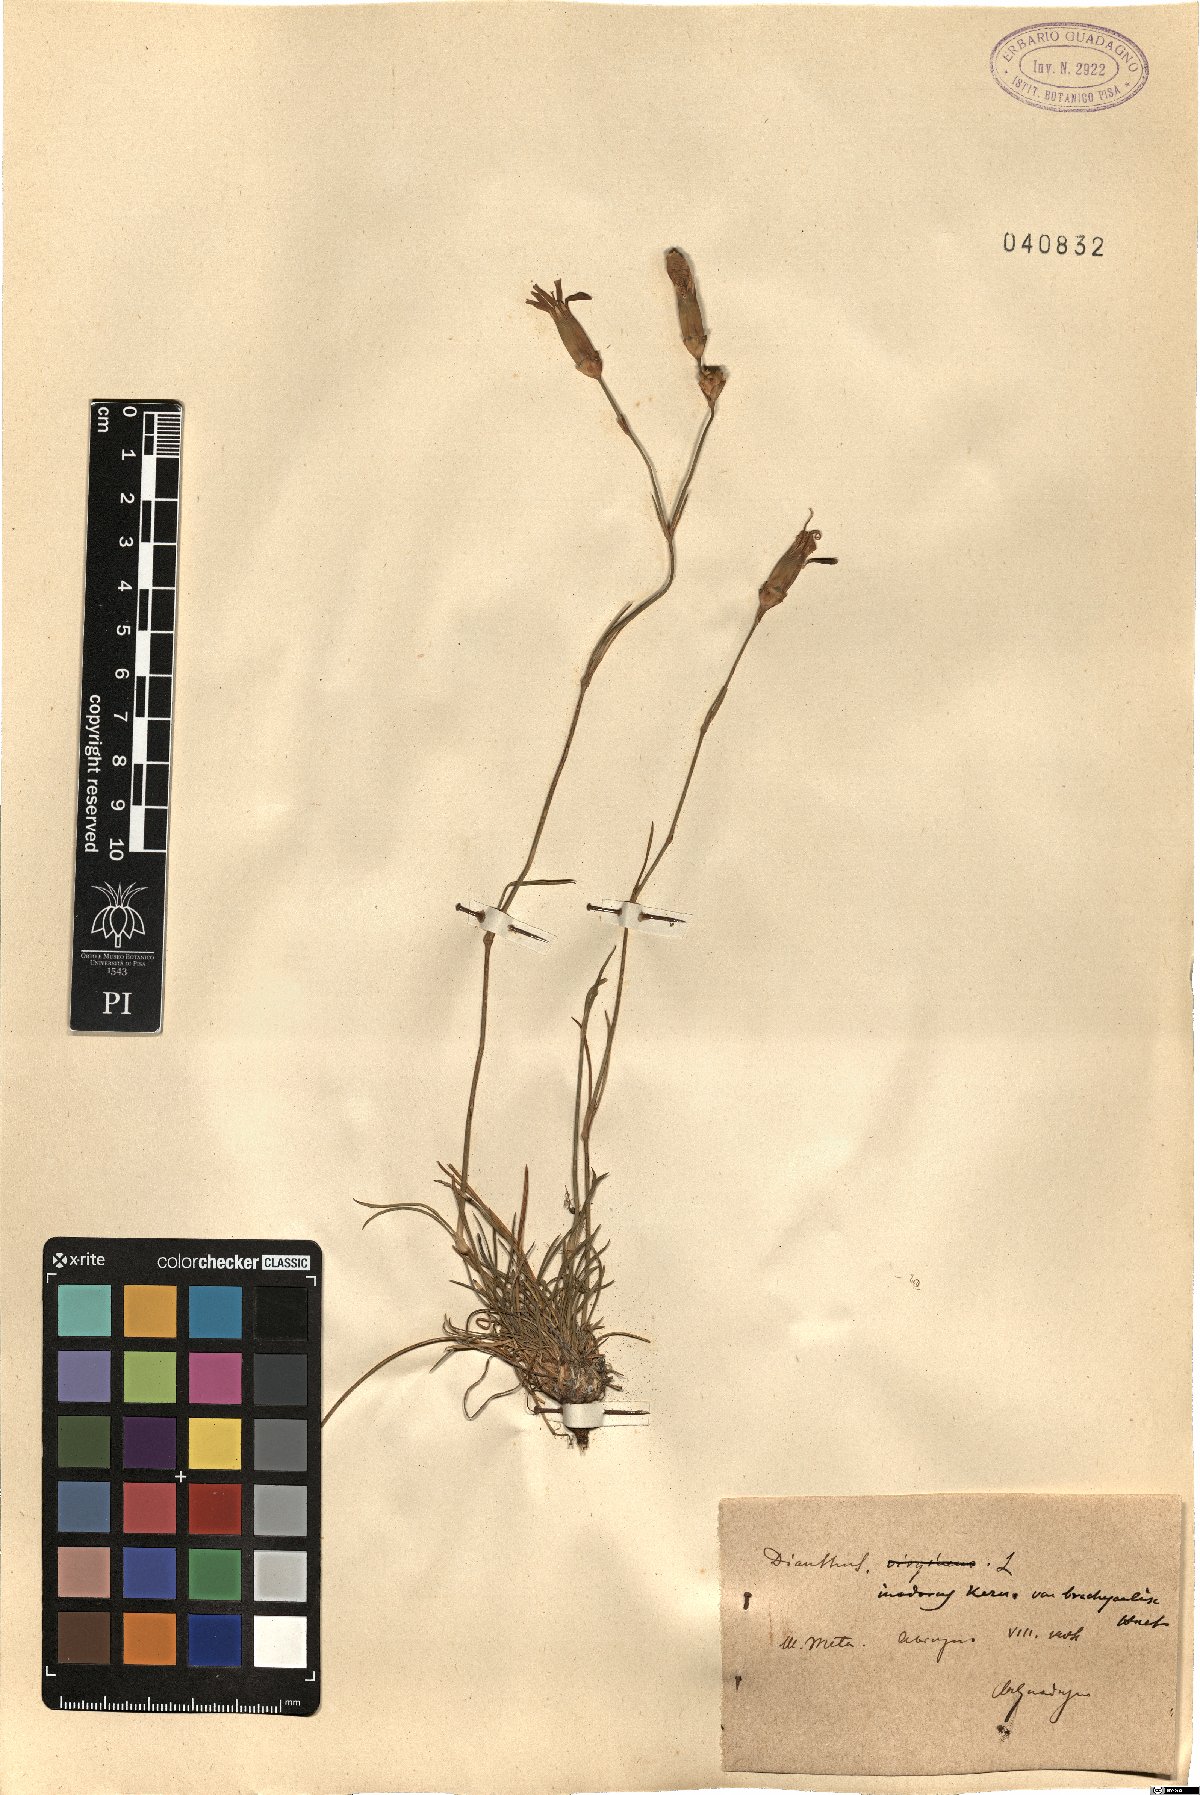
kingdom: Plantae
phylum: Tracheophyta
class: Magnoliopsida
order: Caryophyllales
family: Caryophyllaceae
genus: Dianthus
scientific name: Dianthus sylvestris
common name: Wood pink
